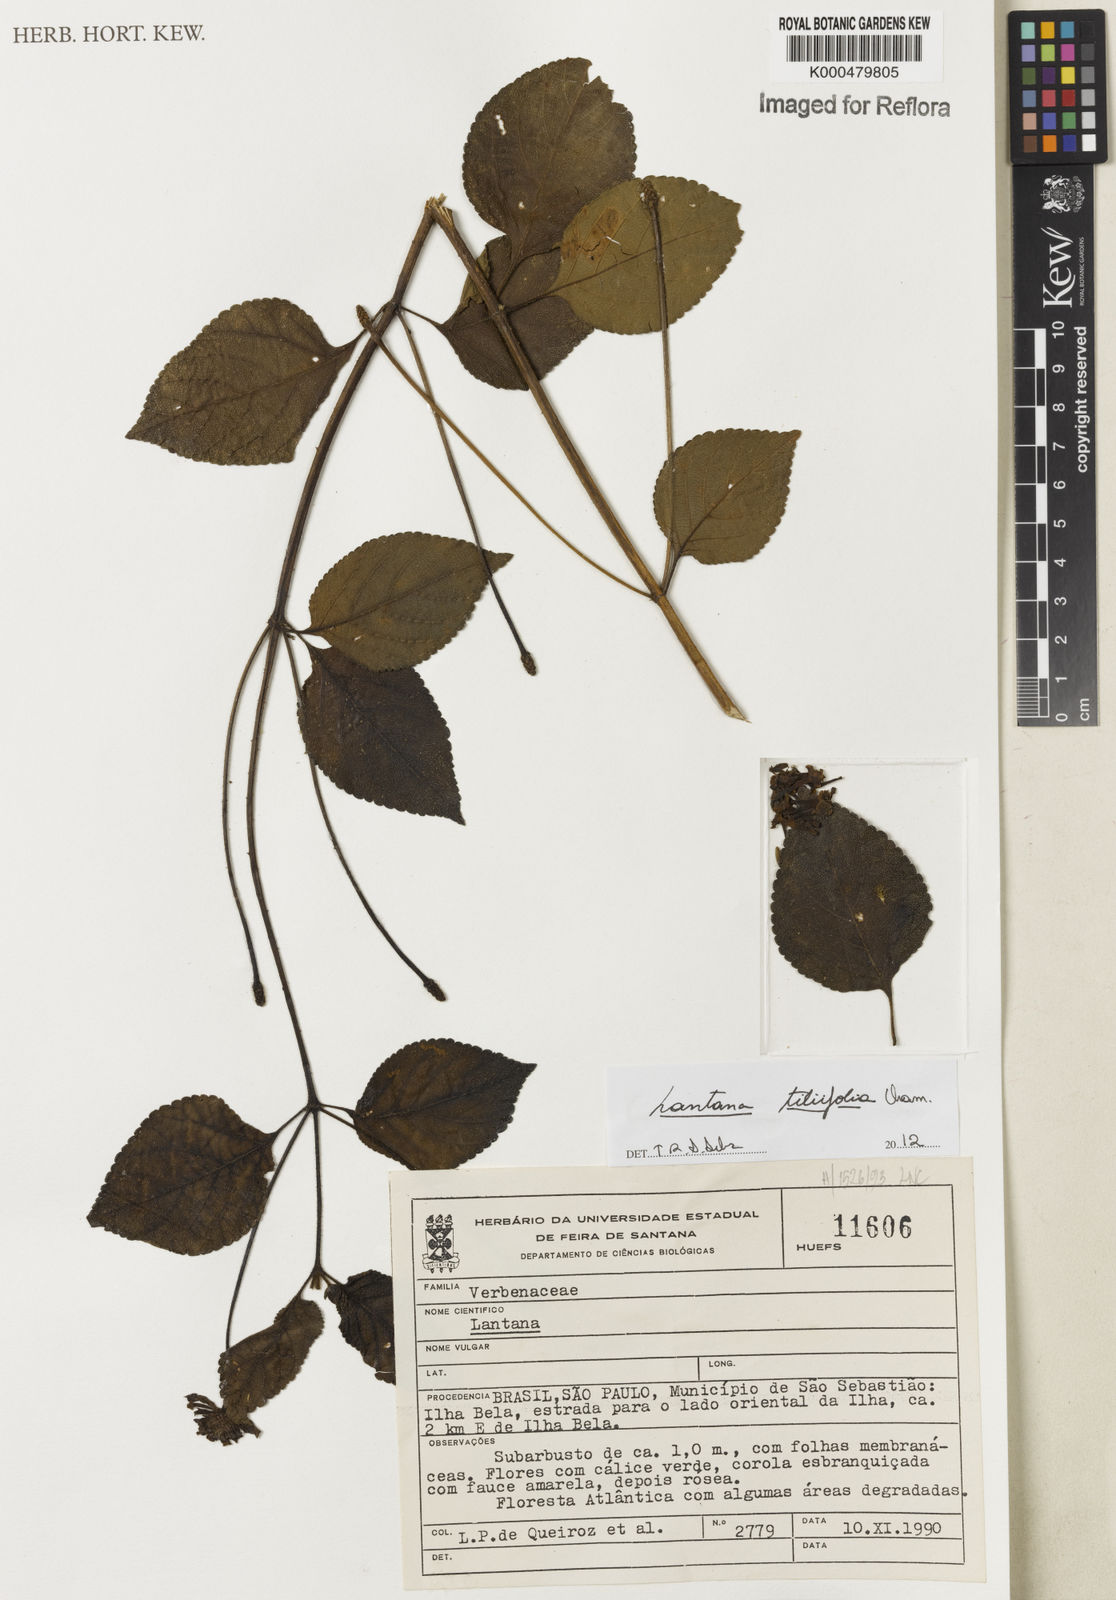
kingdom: Plantae
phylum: Tracheophyta
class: Magnoliopsida
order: Lamiales
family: Verbenaceae
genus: Lantana
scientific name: Lantana horrida
